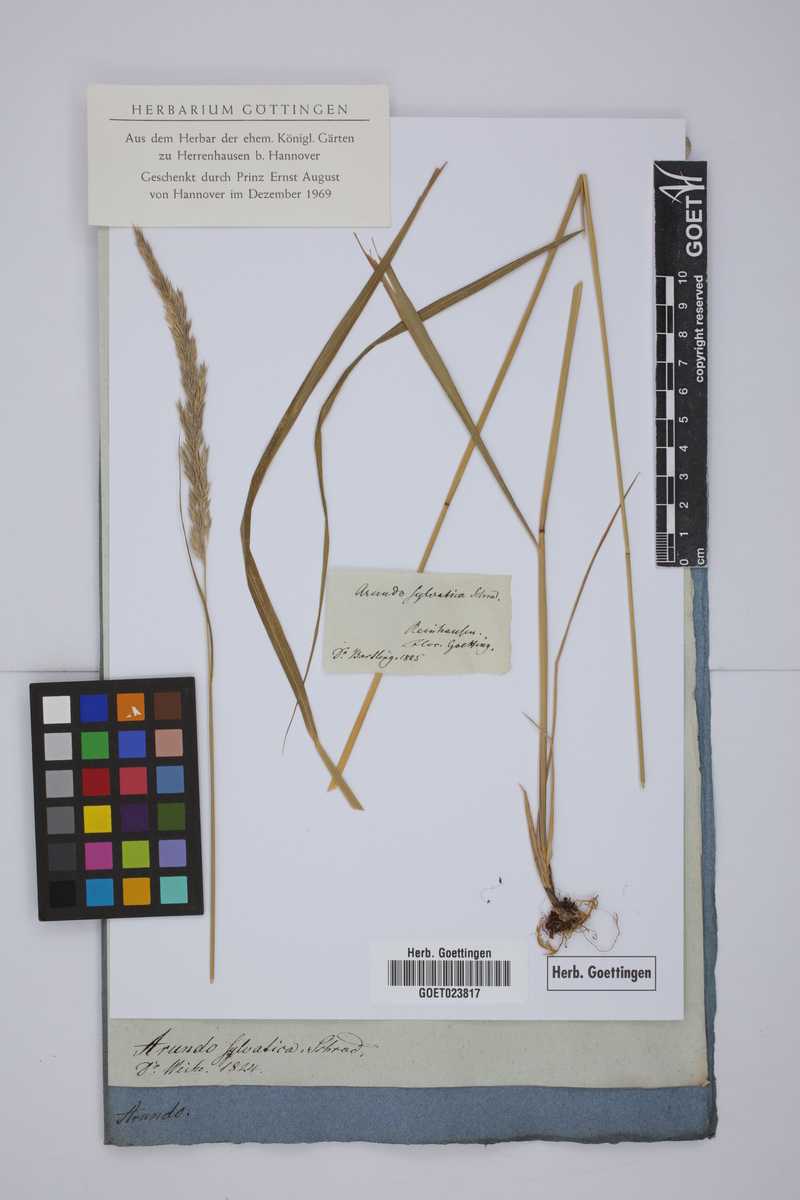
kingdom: Plantae
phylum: Tracheophyta
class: Liliopsida
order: Poales
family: Poaceae
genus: Calamagrostis
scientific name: Calamagrostis arundinacea
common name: Metskastik
